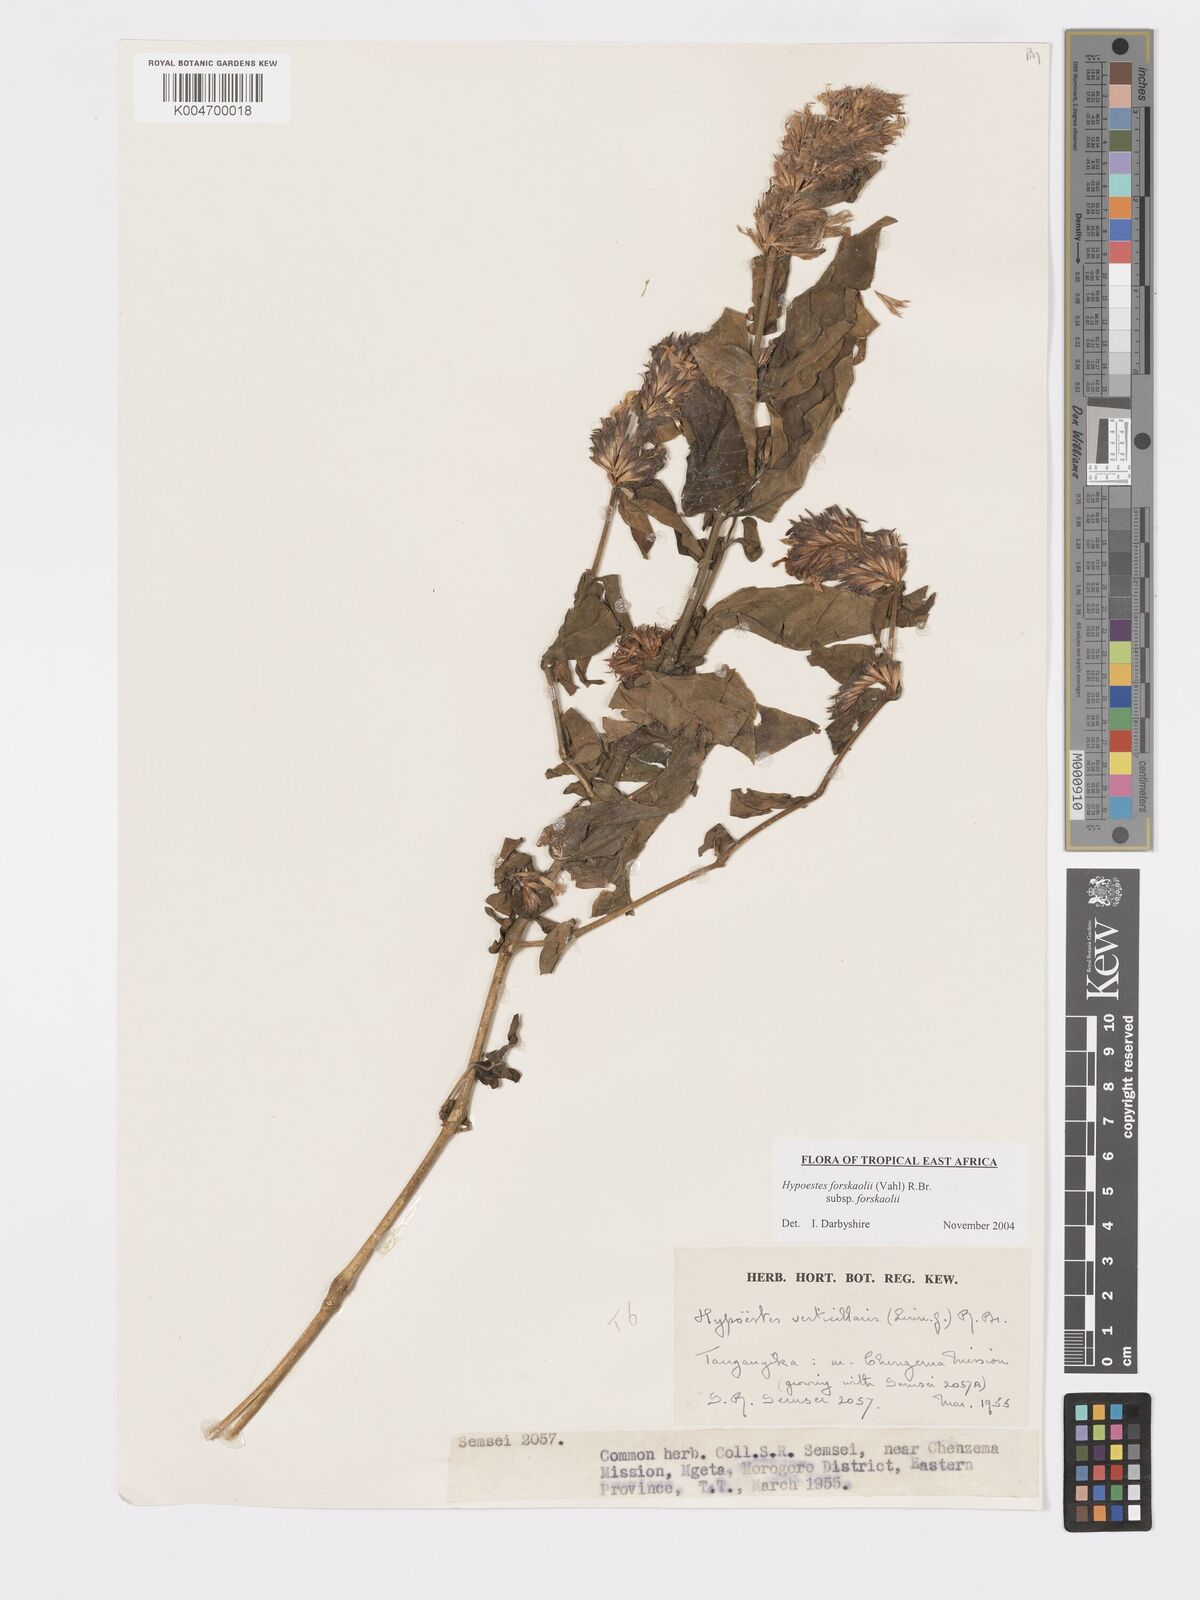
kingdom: Plantae
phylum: Tracheophyta
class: Magnoliopsida
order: Lamiales
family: Acanthaceae
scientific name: Acanthaceae
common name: Acanthaceae
